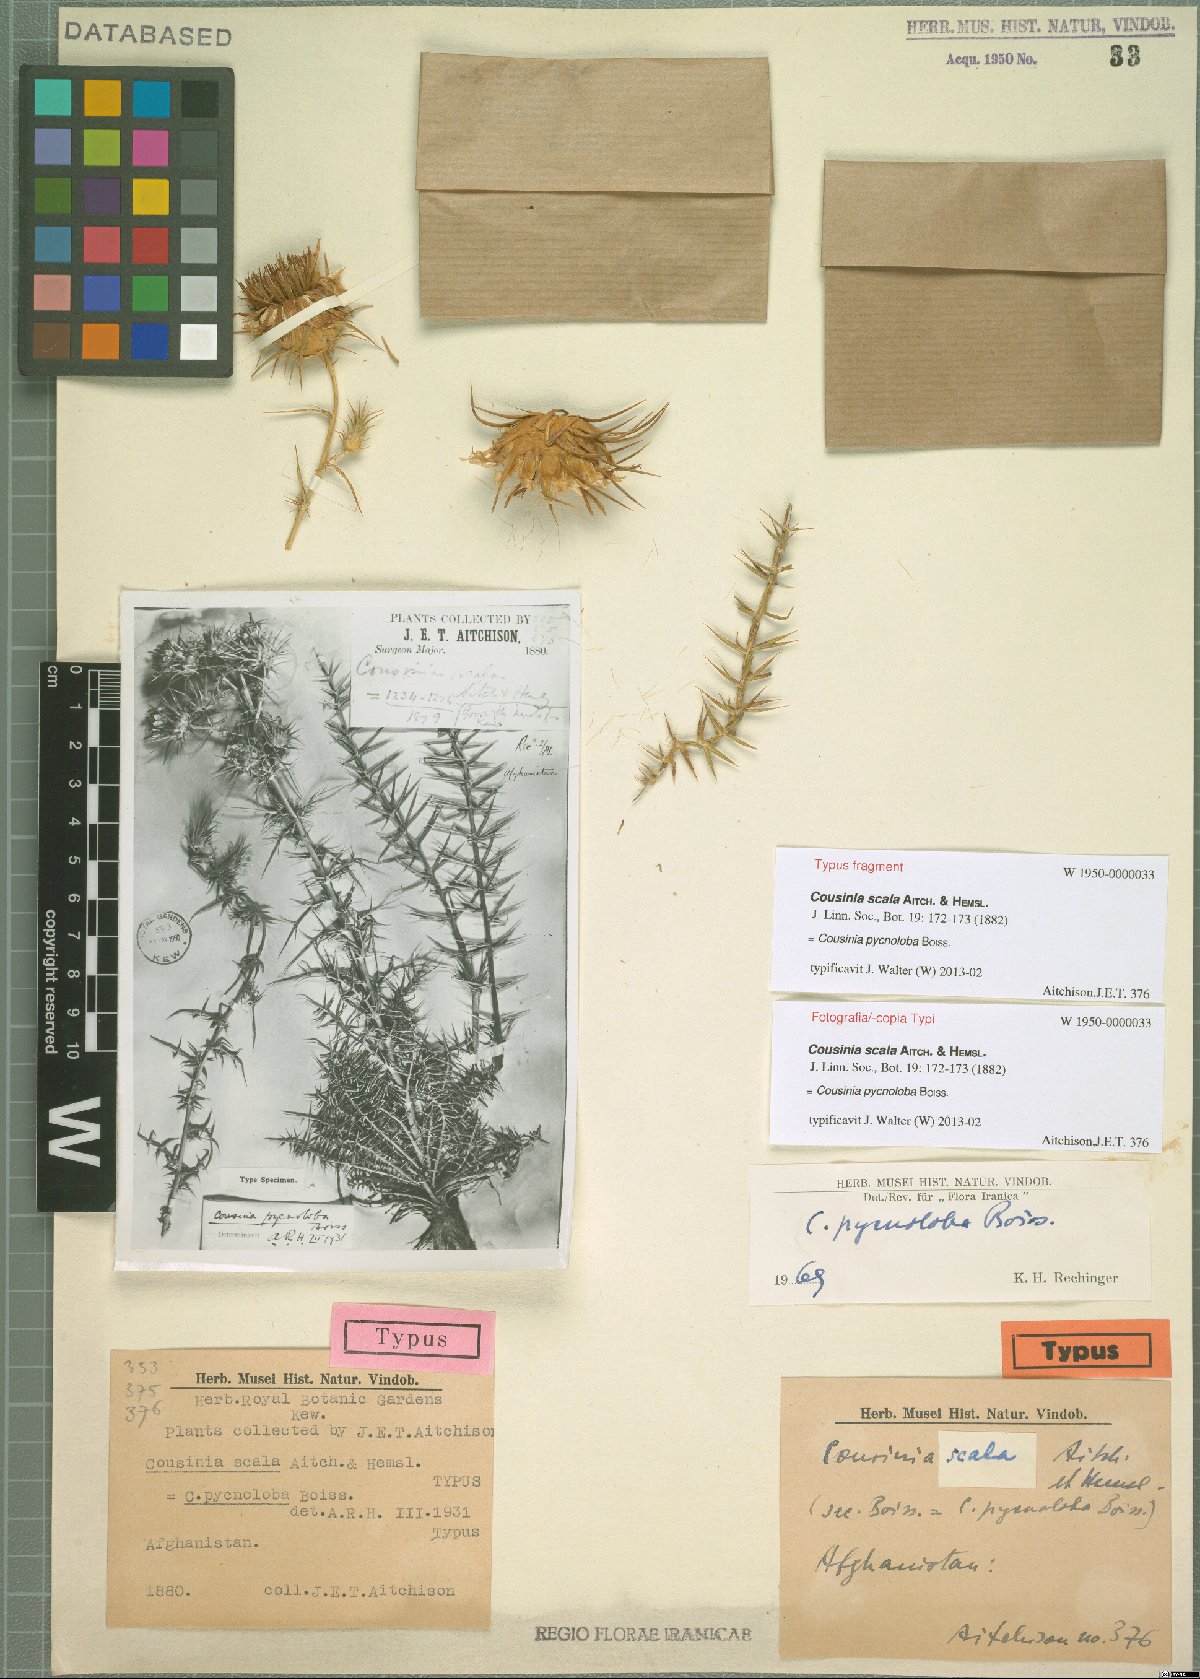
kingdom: Plantae
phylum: Tracheophyta
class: Magnoliopsida
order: Asterales
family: Asteraceae
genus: Cousinia
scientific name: Cousinia pycnoloba
